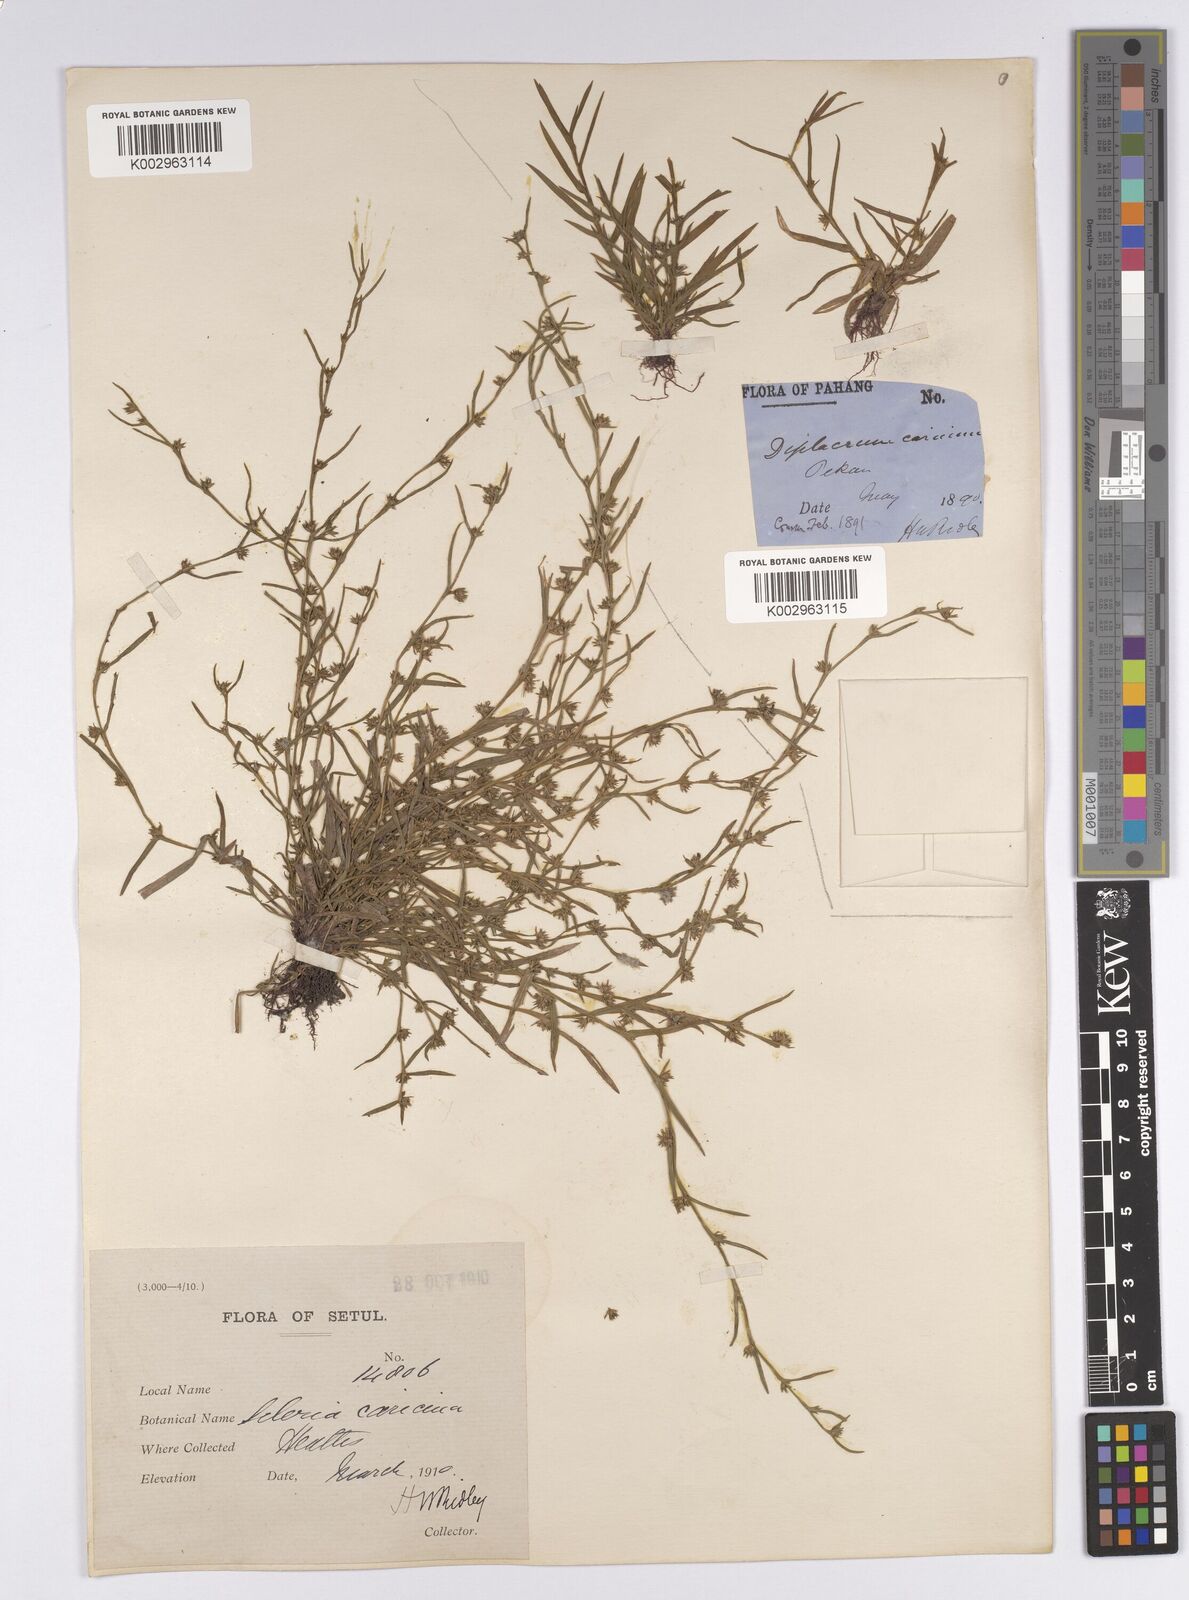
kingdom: Plantae
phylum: Tracheophyta
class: Liliopsida
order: Poales
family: Cyperaceae
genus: Diplacrum
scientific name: Diplacrum caricinum
